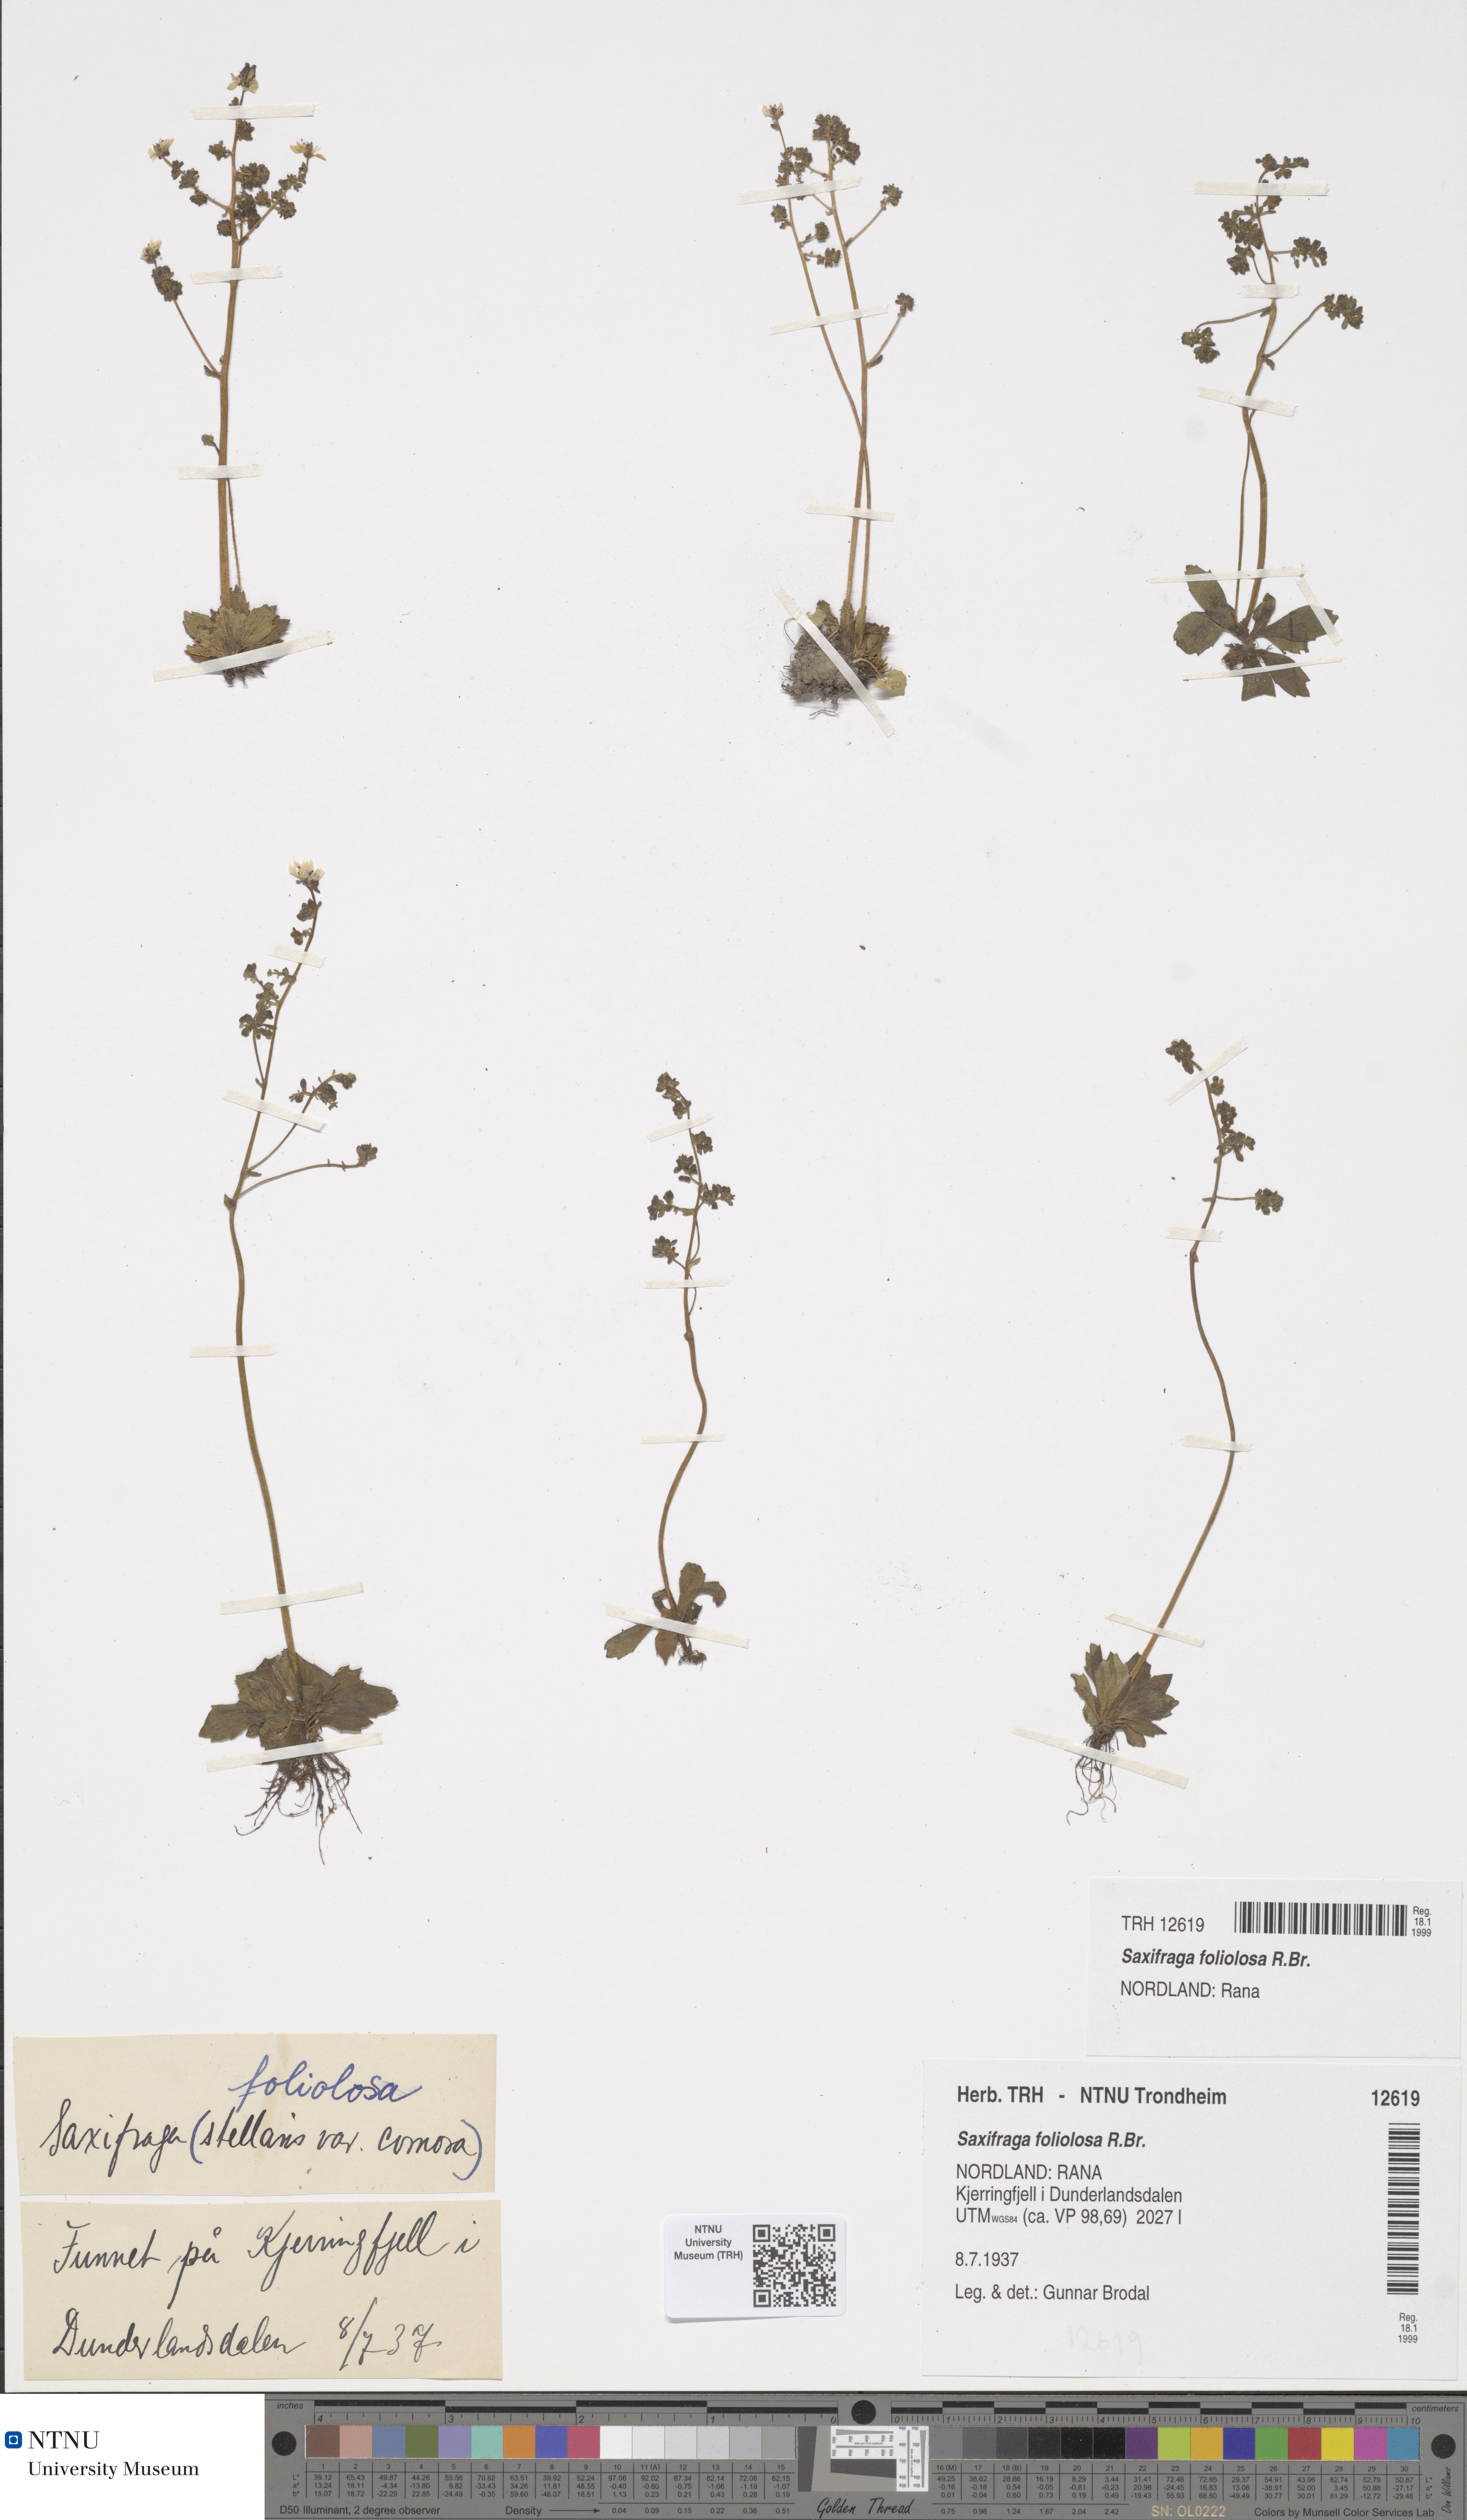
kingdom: Plantae
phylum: Tracheophyta
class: Magnoliopsida
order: Saxifragales
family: Saxifragaceae
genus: Micranthes
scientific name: Micranthes foliolosa
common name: Leafystem saxifrage
